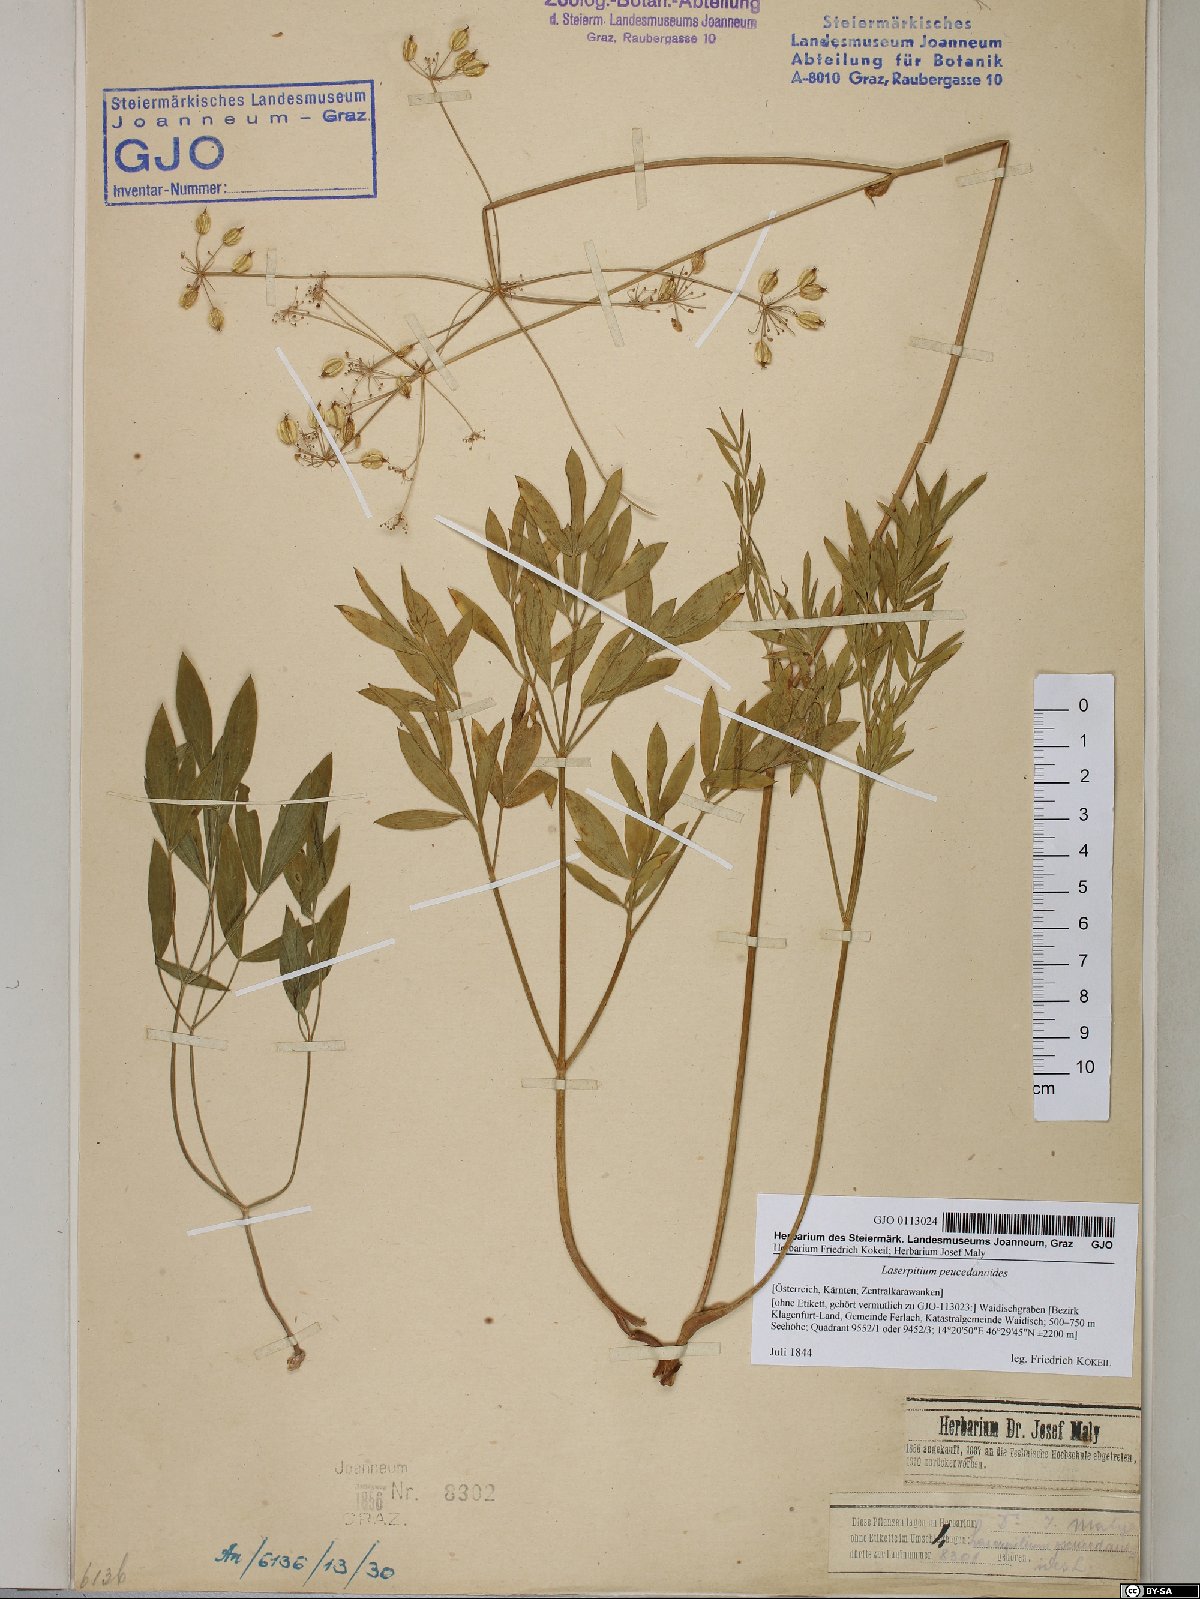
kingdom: Plantae
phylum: Tracheophyta
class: Magnoliopsida
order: Apiales
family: Apiaceae
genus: Laserpitium
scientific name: Laserpitium peucedanoides
